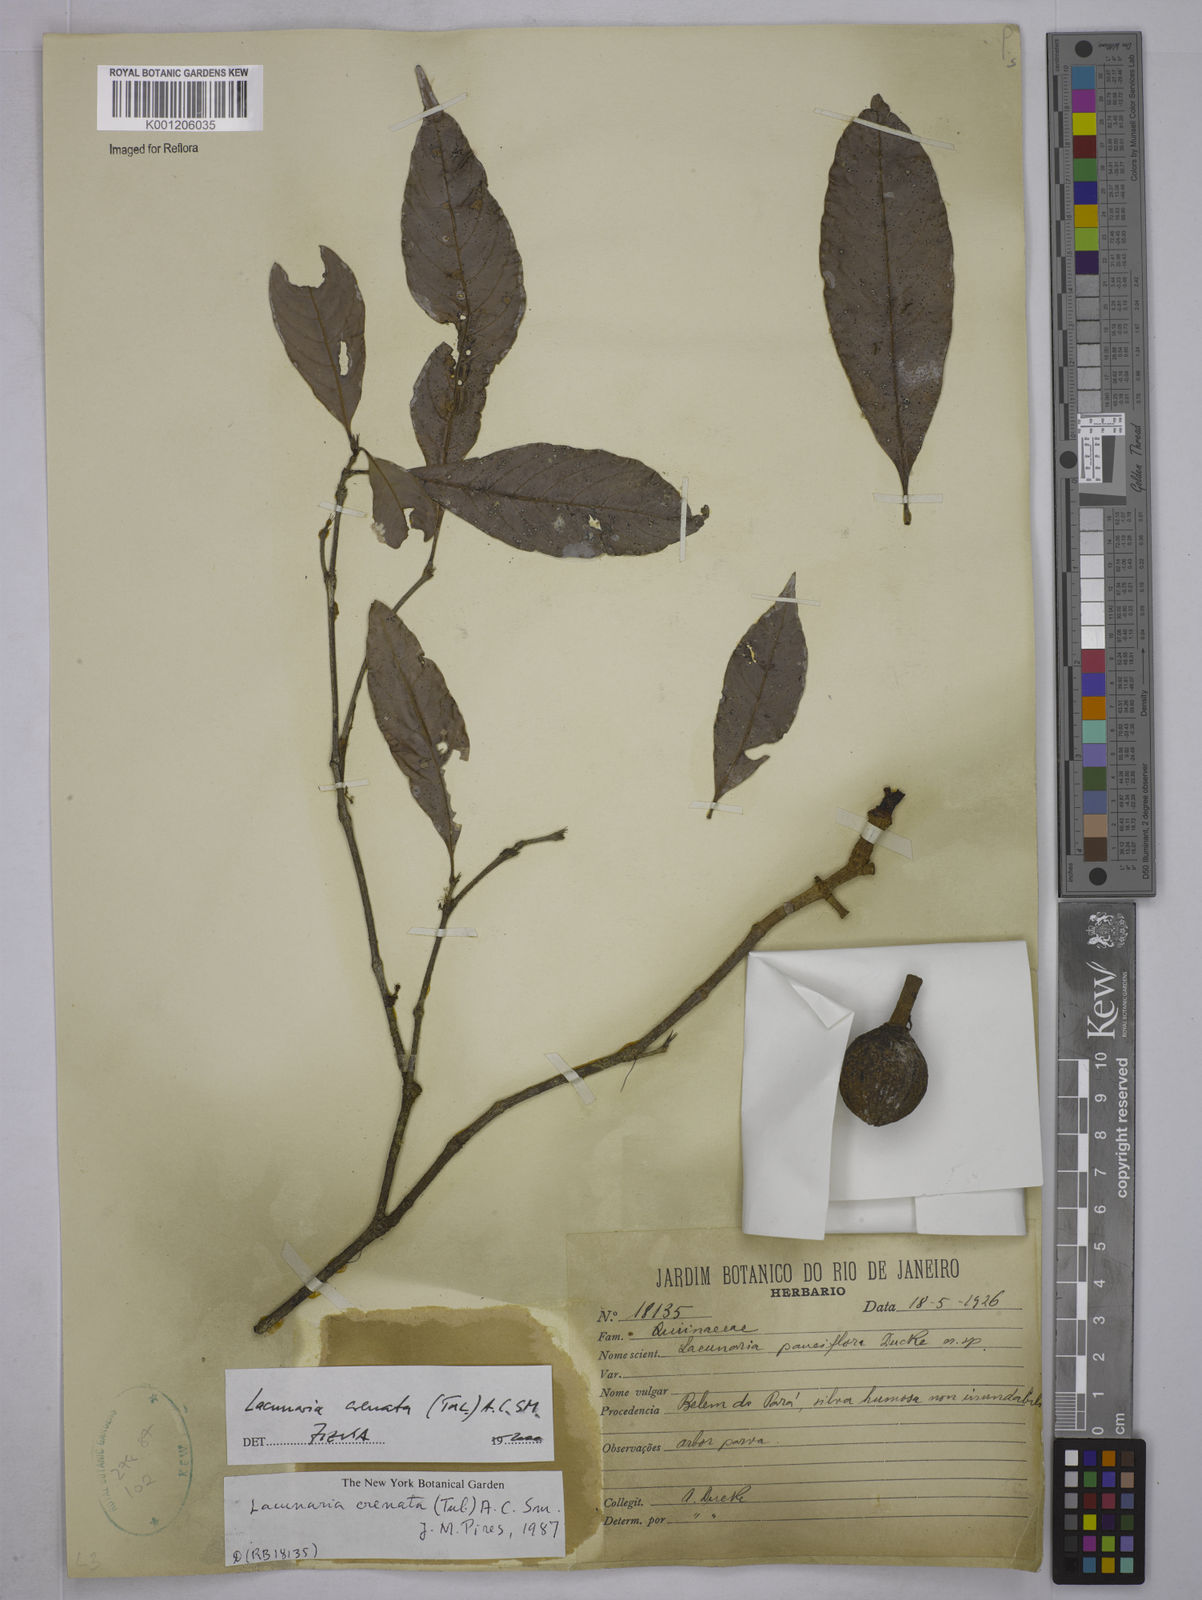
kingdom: Plantae
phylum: Tracheophyta
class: Magnoliopsida
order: Malpighiales
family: Quiinaceae
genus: Lacunaria
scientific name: Lacunaria crenata
